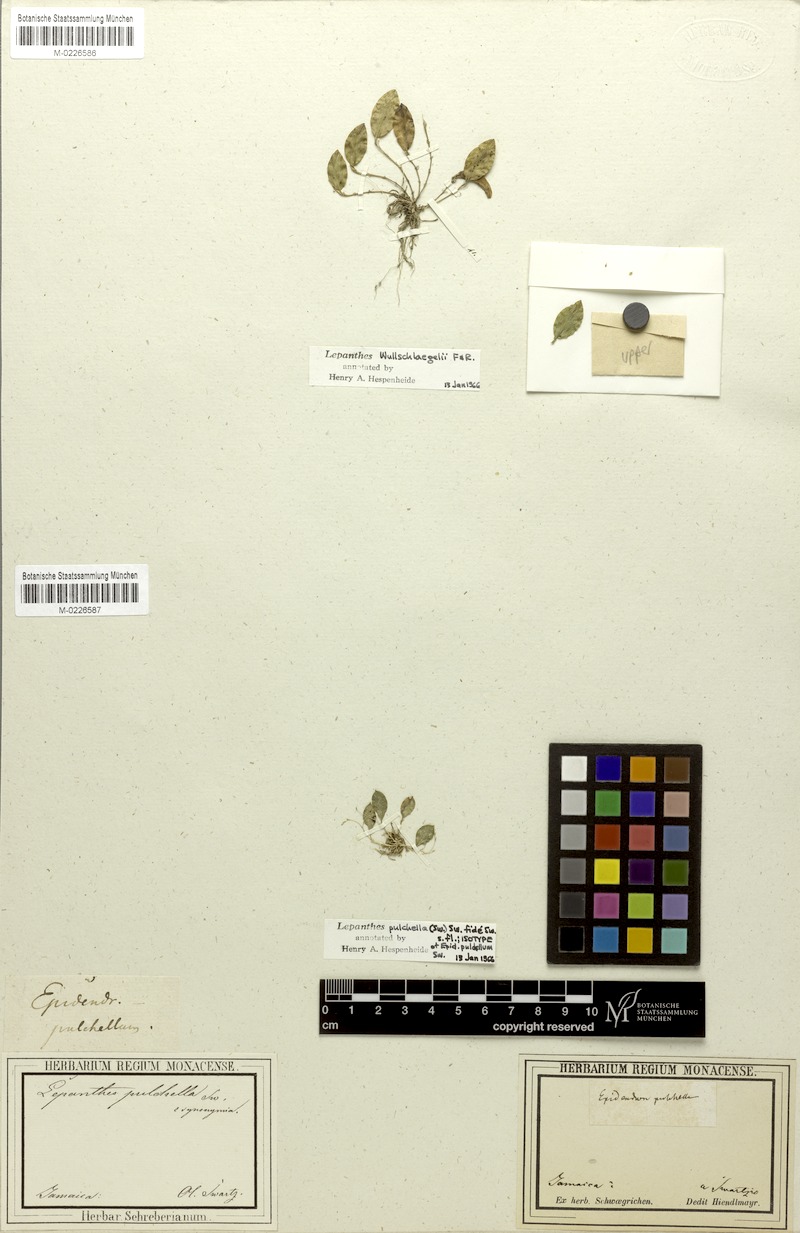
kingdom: Plantae
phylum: Tracheophyta
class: Liliopsida
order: Asparagales
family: Orchidaceae
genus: Lepanthes
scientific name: Lepanthes pulchella
